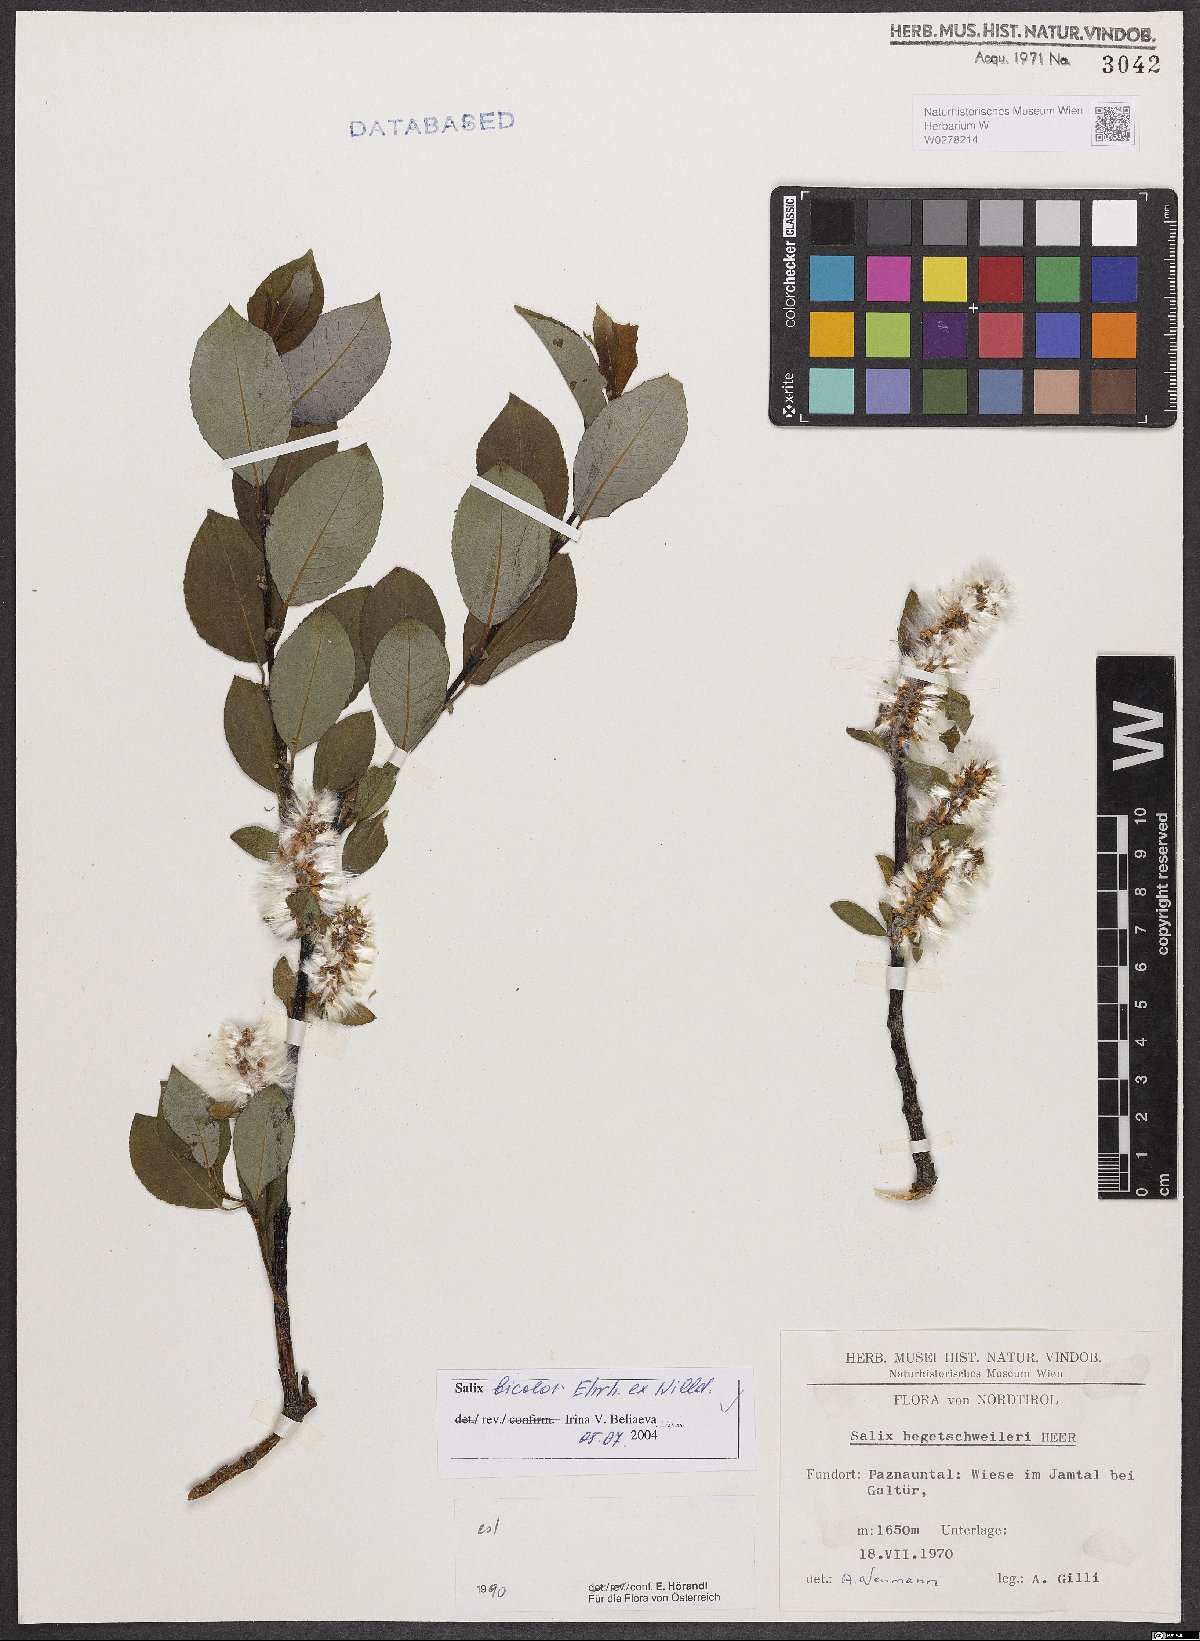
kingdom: Plantae
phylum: Tracheophyta
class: Magnoliopsida
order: Malpighiales
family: Salicaceae
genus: Salix
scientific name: Salix bicolor
